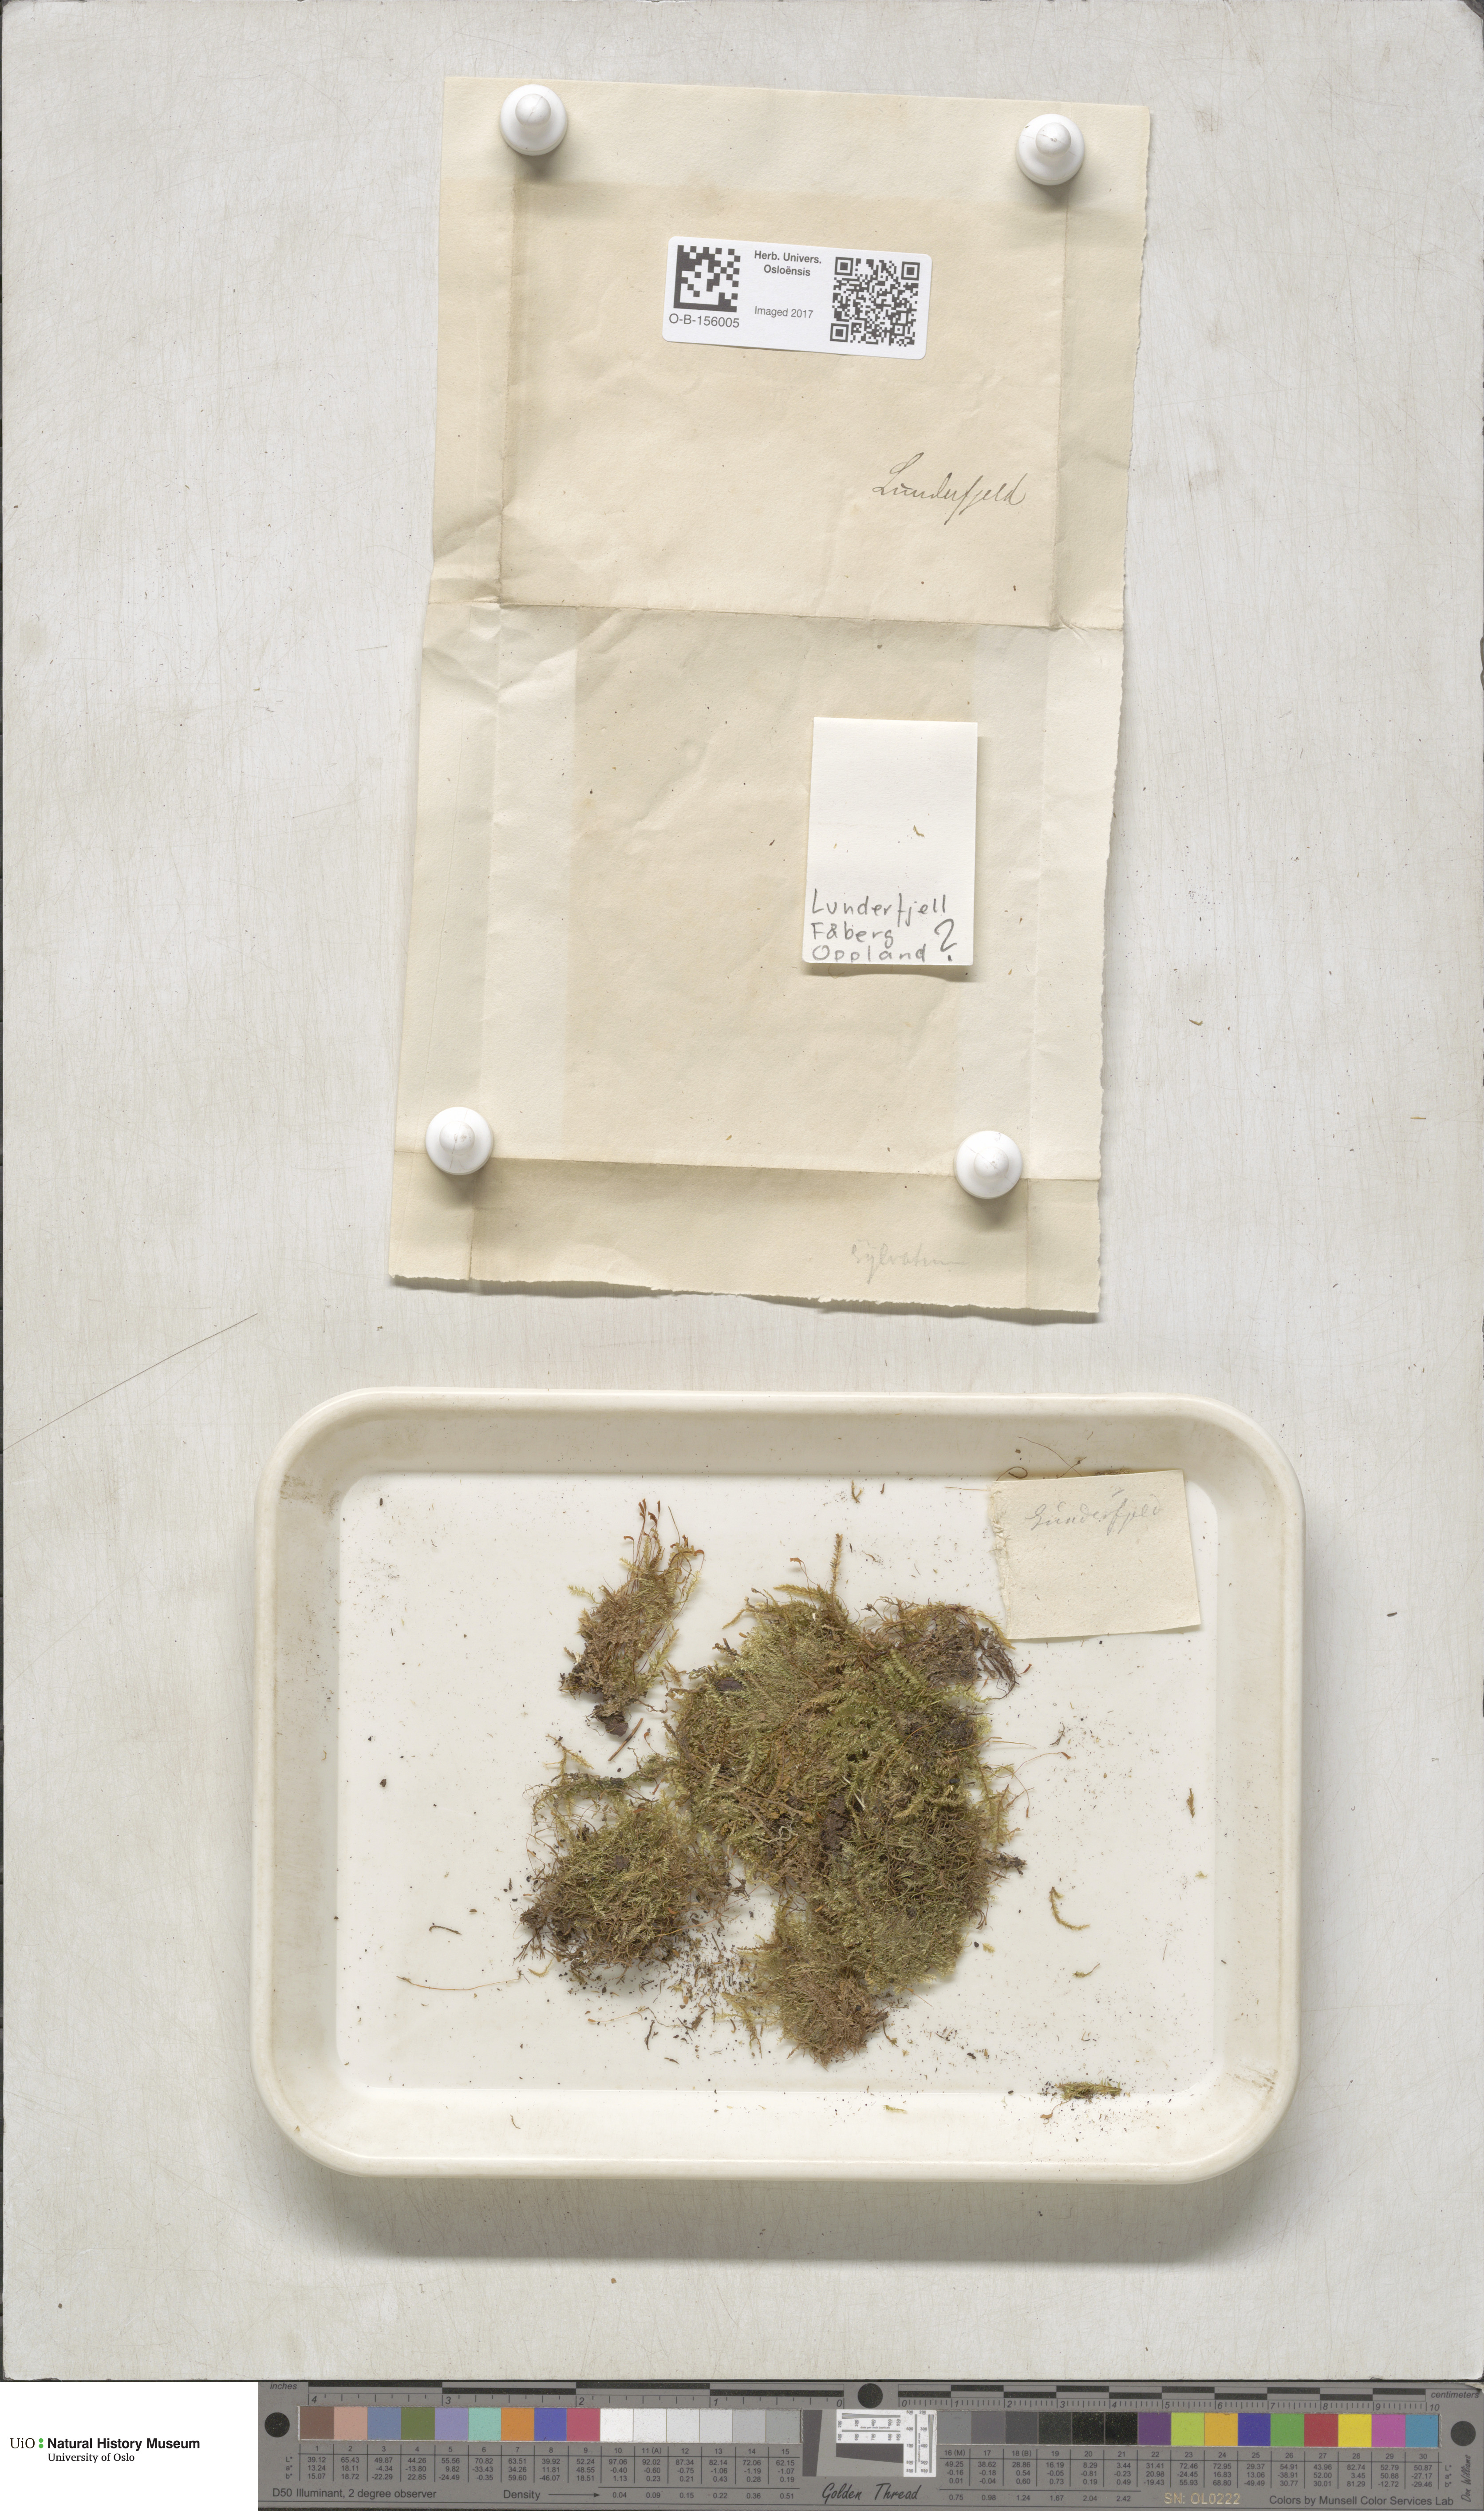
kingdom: Plantae
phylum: Bryophyta
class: Bryopsida
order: Hypnales
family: Plagiotheciaceae
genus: Plagiothecium
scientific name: Plagiothecium nemorale
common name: Woodsy silk-moss
